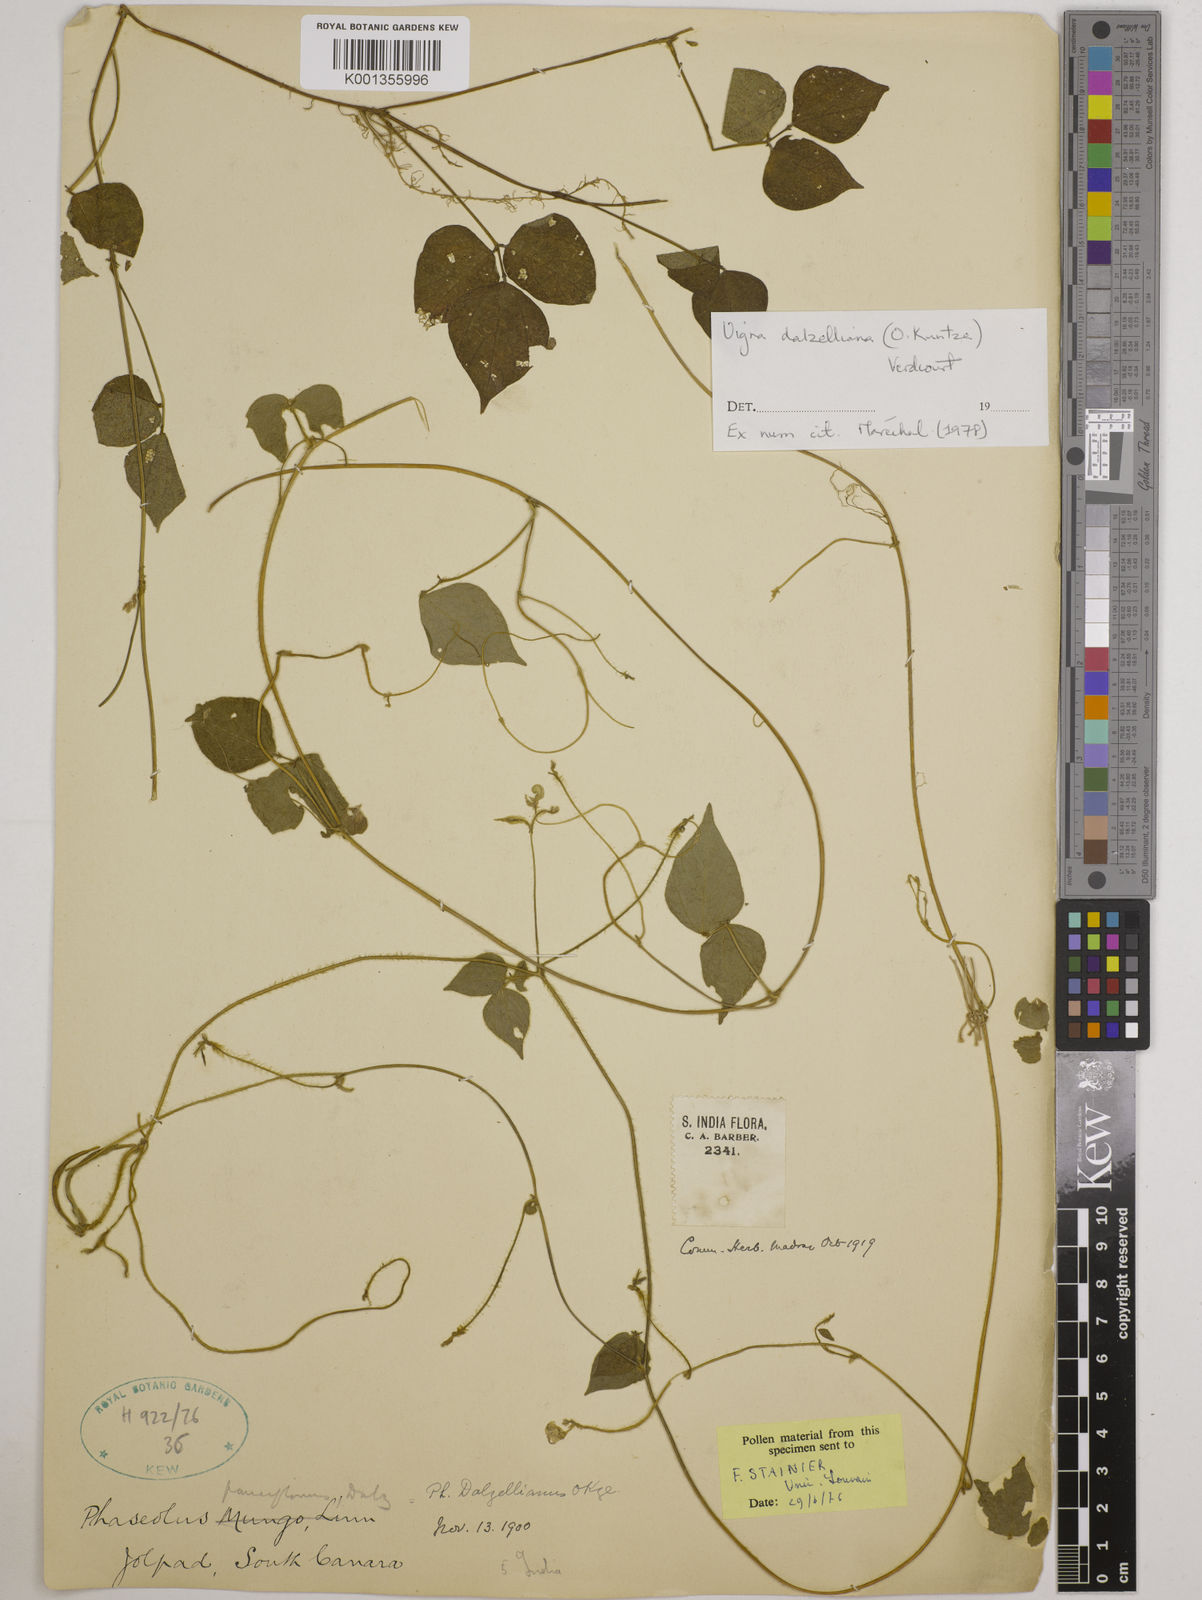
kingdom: Plantae
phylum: Tracheophyta
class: Magnoliopsida
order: Fabales
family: Fabaceae
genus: Vigna
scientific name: Vigna dalzelliana
